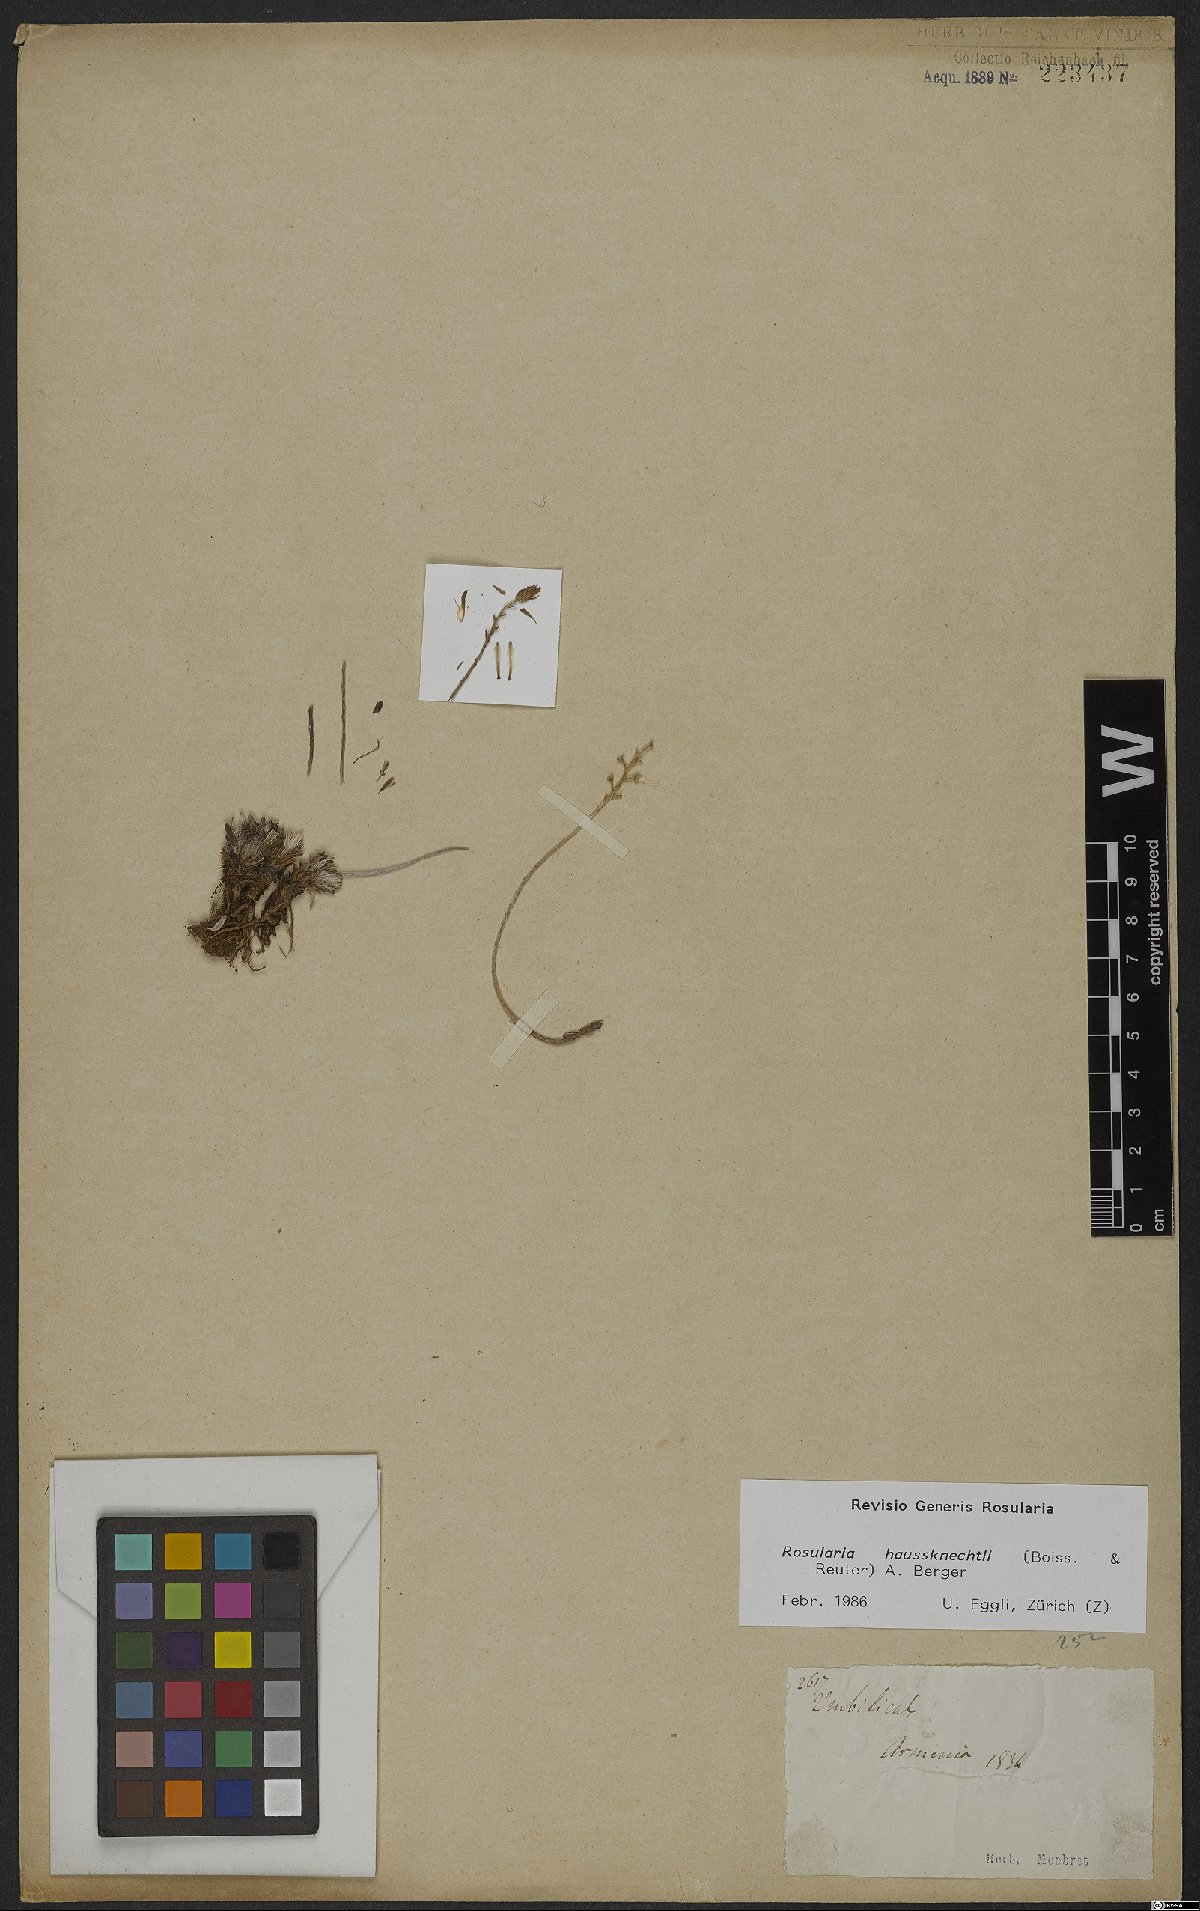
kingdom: Plantae
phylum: Tracheophyta
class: Magnoliopsida
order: Saxifragales
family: Crassulaceae
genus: Rosularia
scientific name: Rosularia haussknechtii
